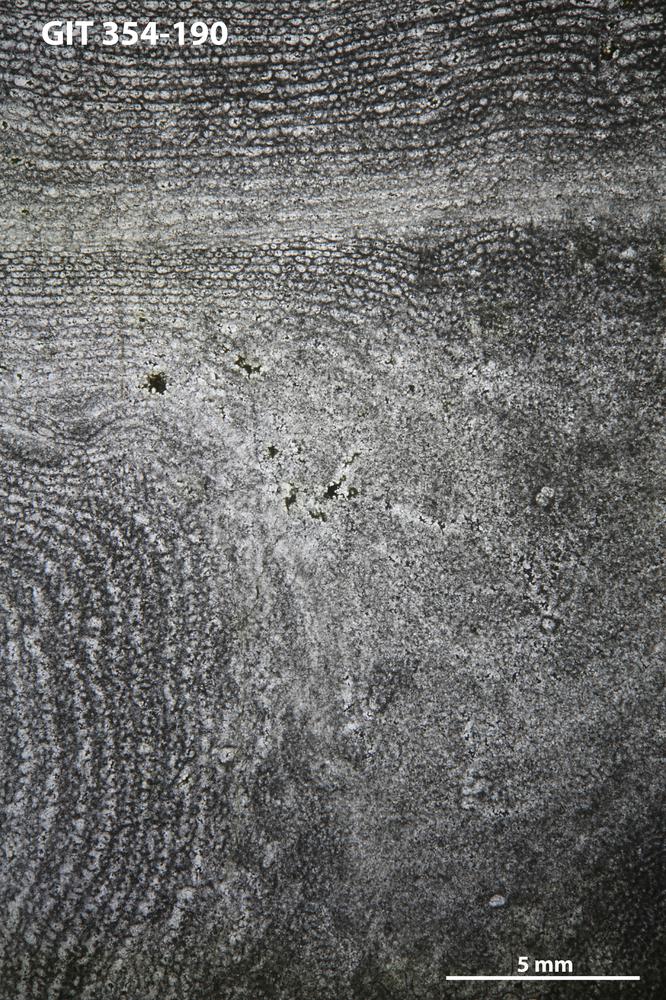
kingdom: Animalia
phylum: Porifera
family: Clathrodictyidae
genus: Clathrodictyon
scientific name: Clathrodictyon kudriavzevi
